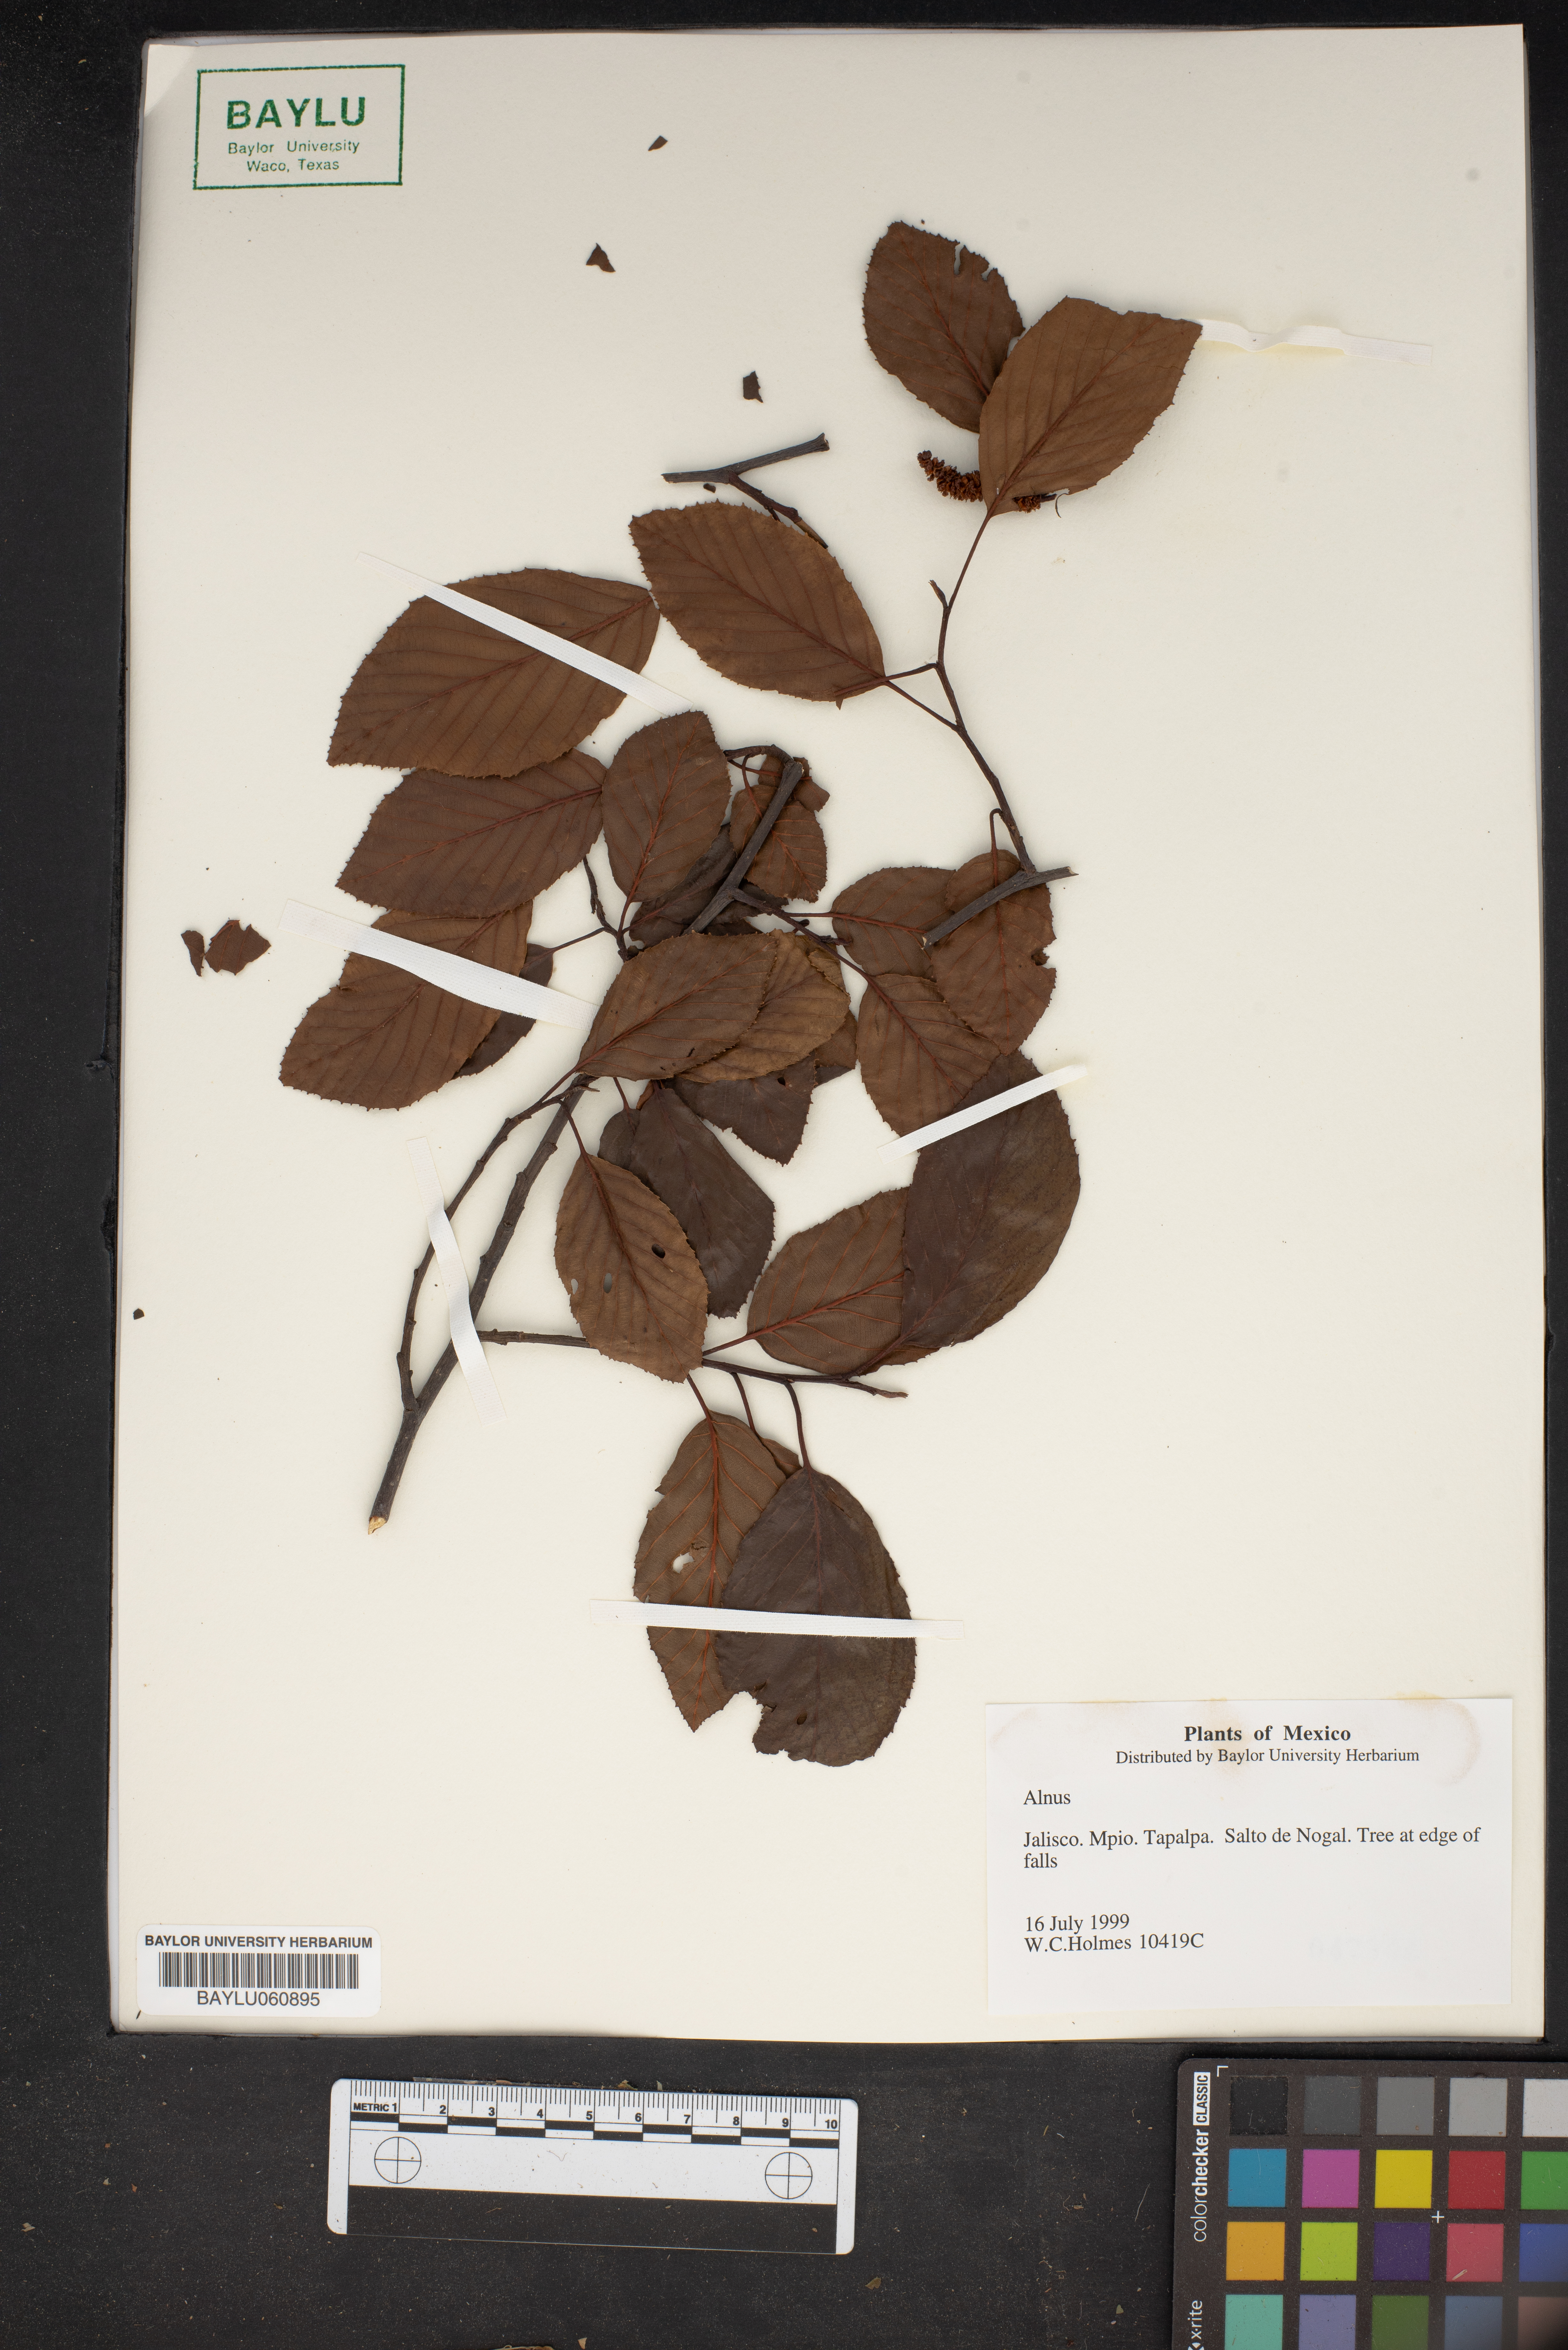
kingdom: Plantae
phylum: Tracheophyta
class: Magnoliopsida
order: Fagales
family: Betulaceae
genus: Alnus
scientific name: Alnus
